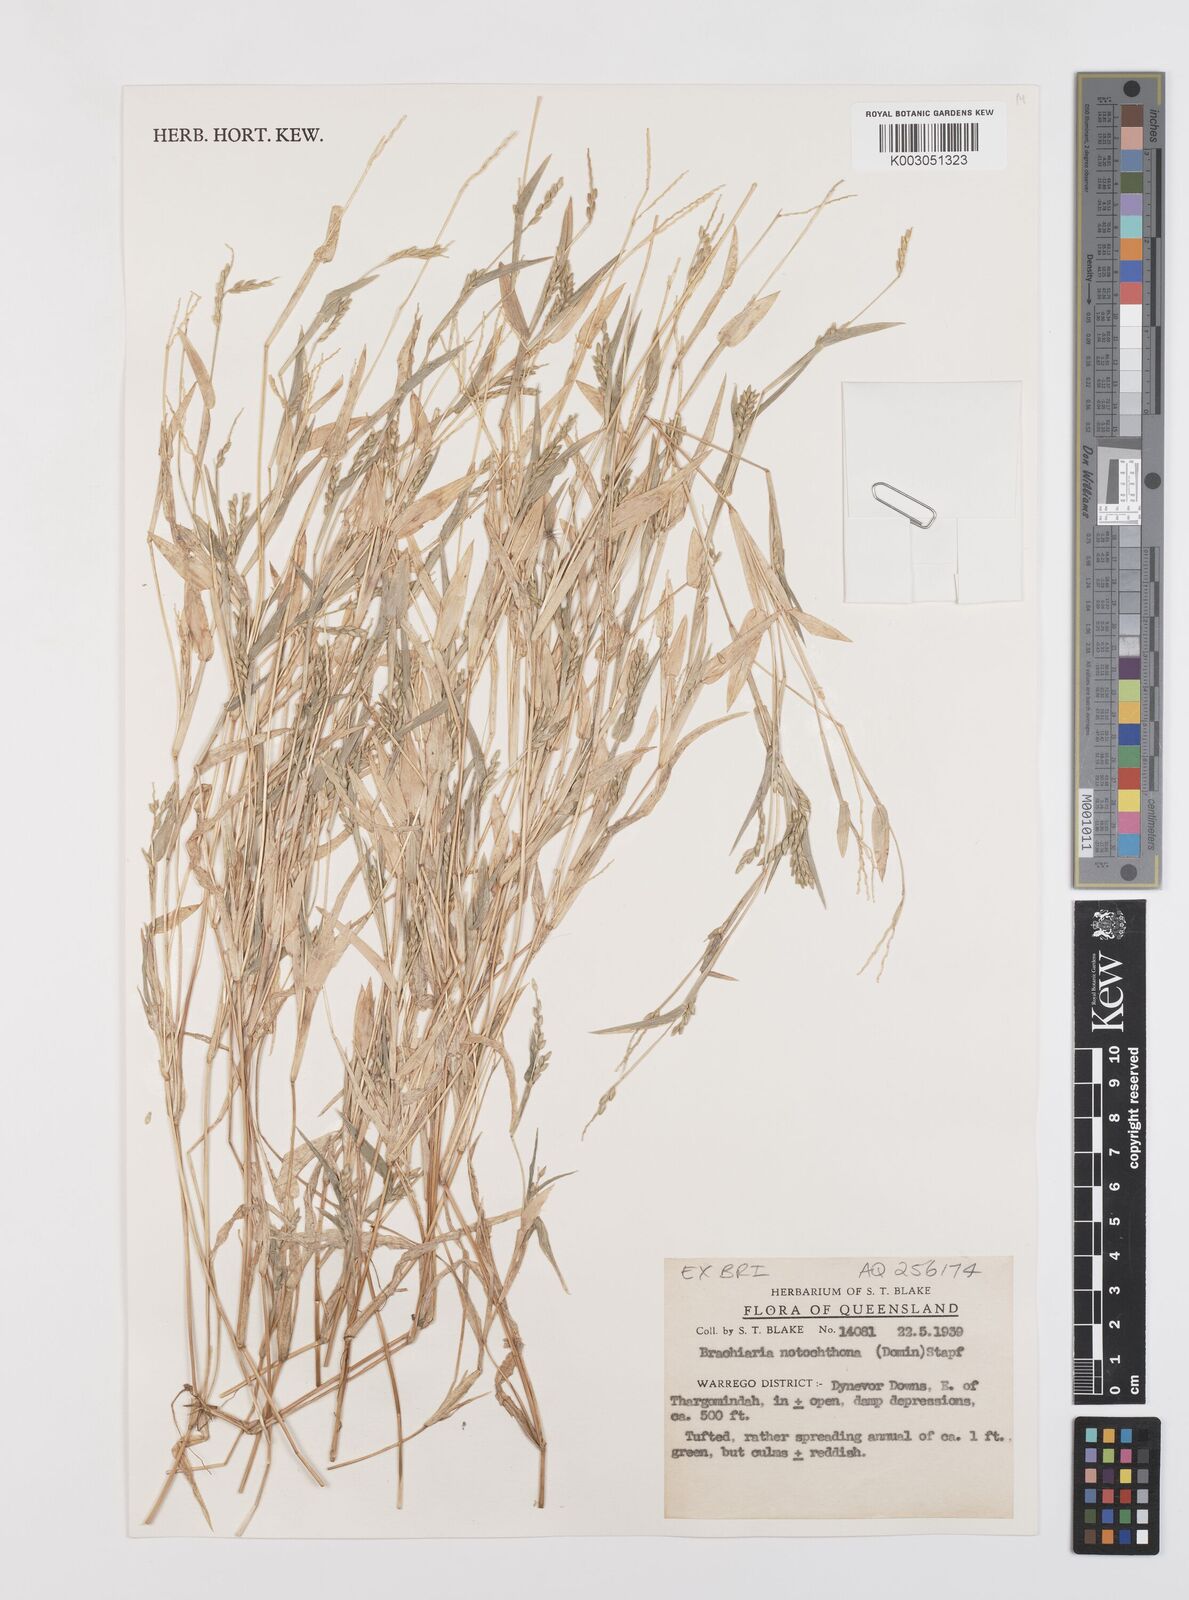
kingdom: Plantae
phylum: Tracheophyta
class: Liliopsida
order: Poales
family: Poaceae
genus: Urochloa
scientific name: Urochloa notochthona
